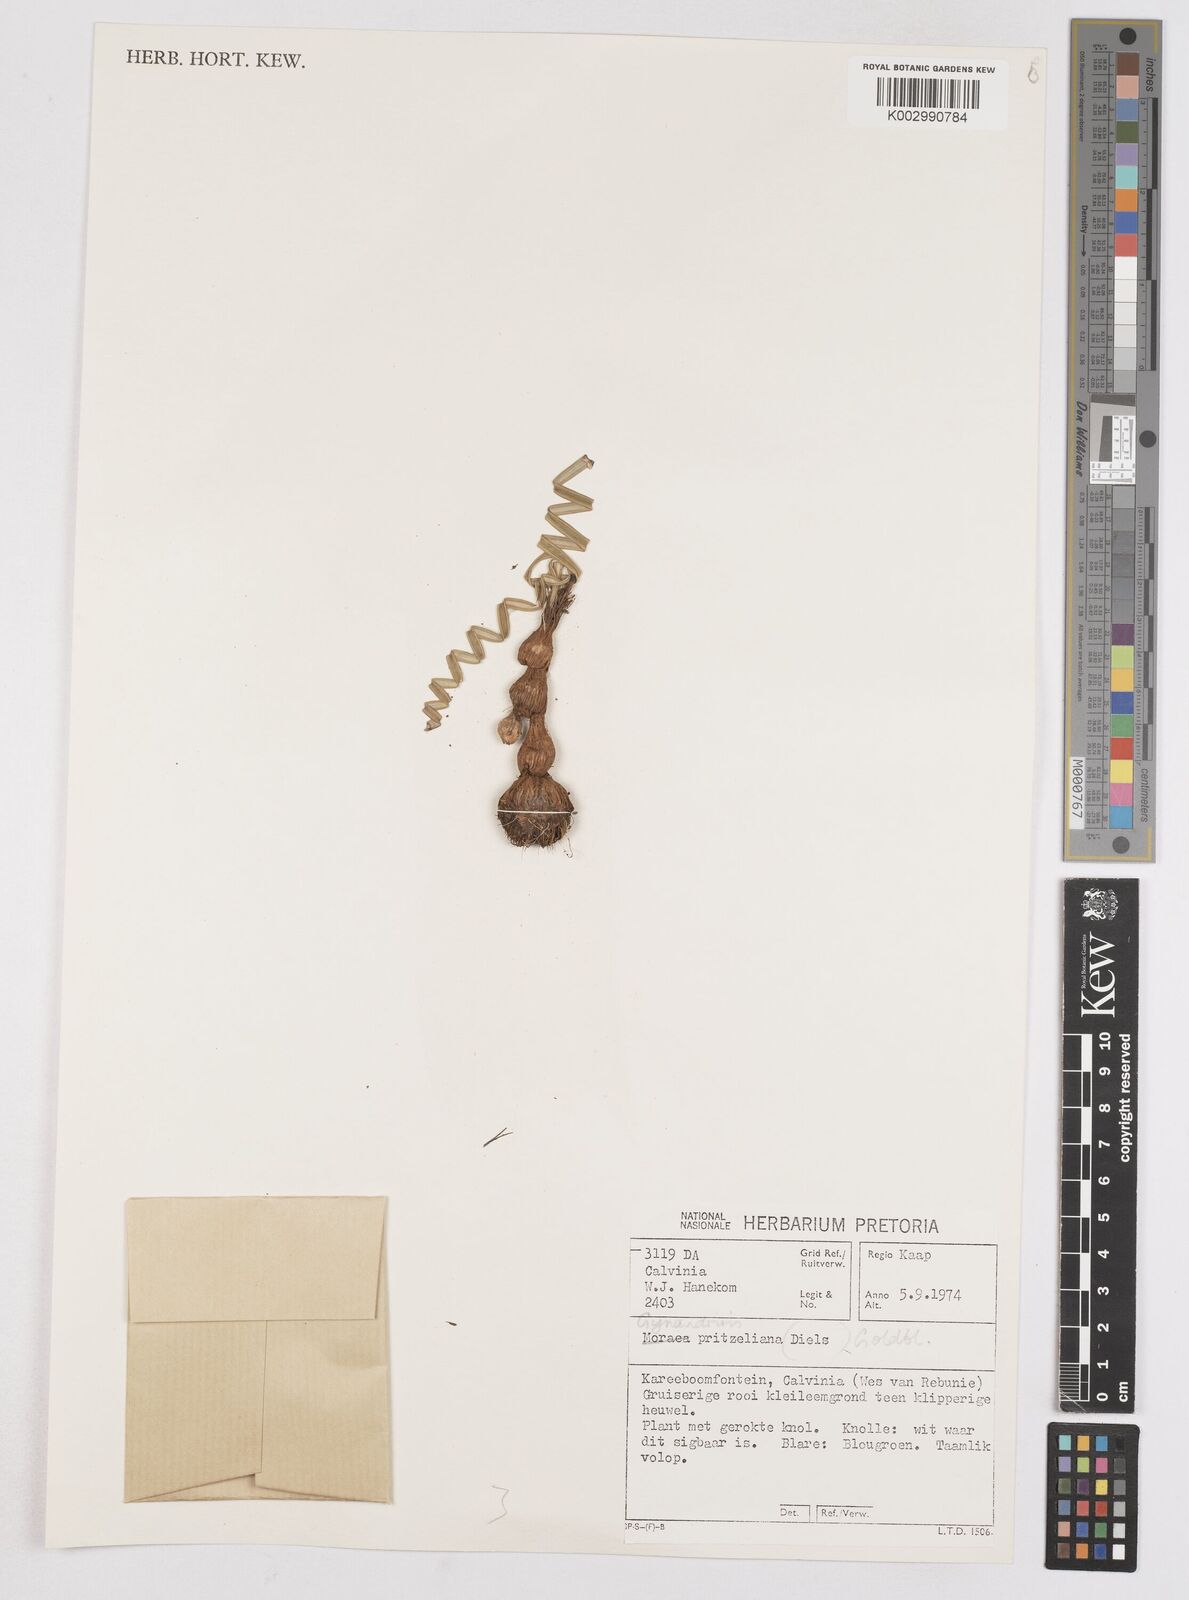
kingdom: Plantae
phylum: Tracheophyta
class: Liliopsida
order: Asparagales
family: Iridaceae
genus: Moraea
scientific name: Moraea pritzeliana
